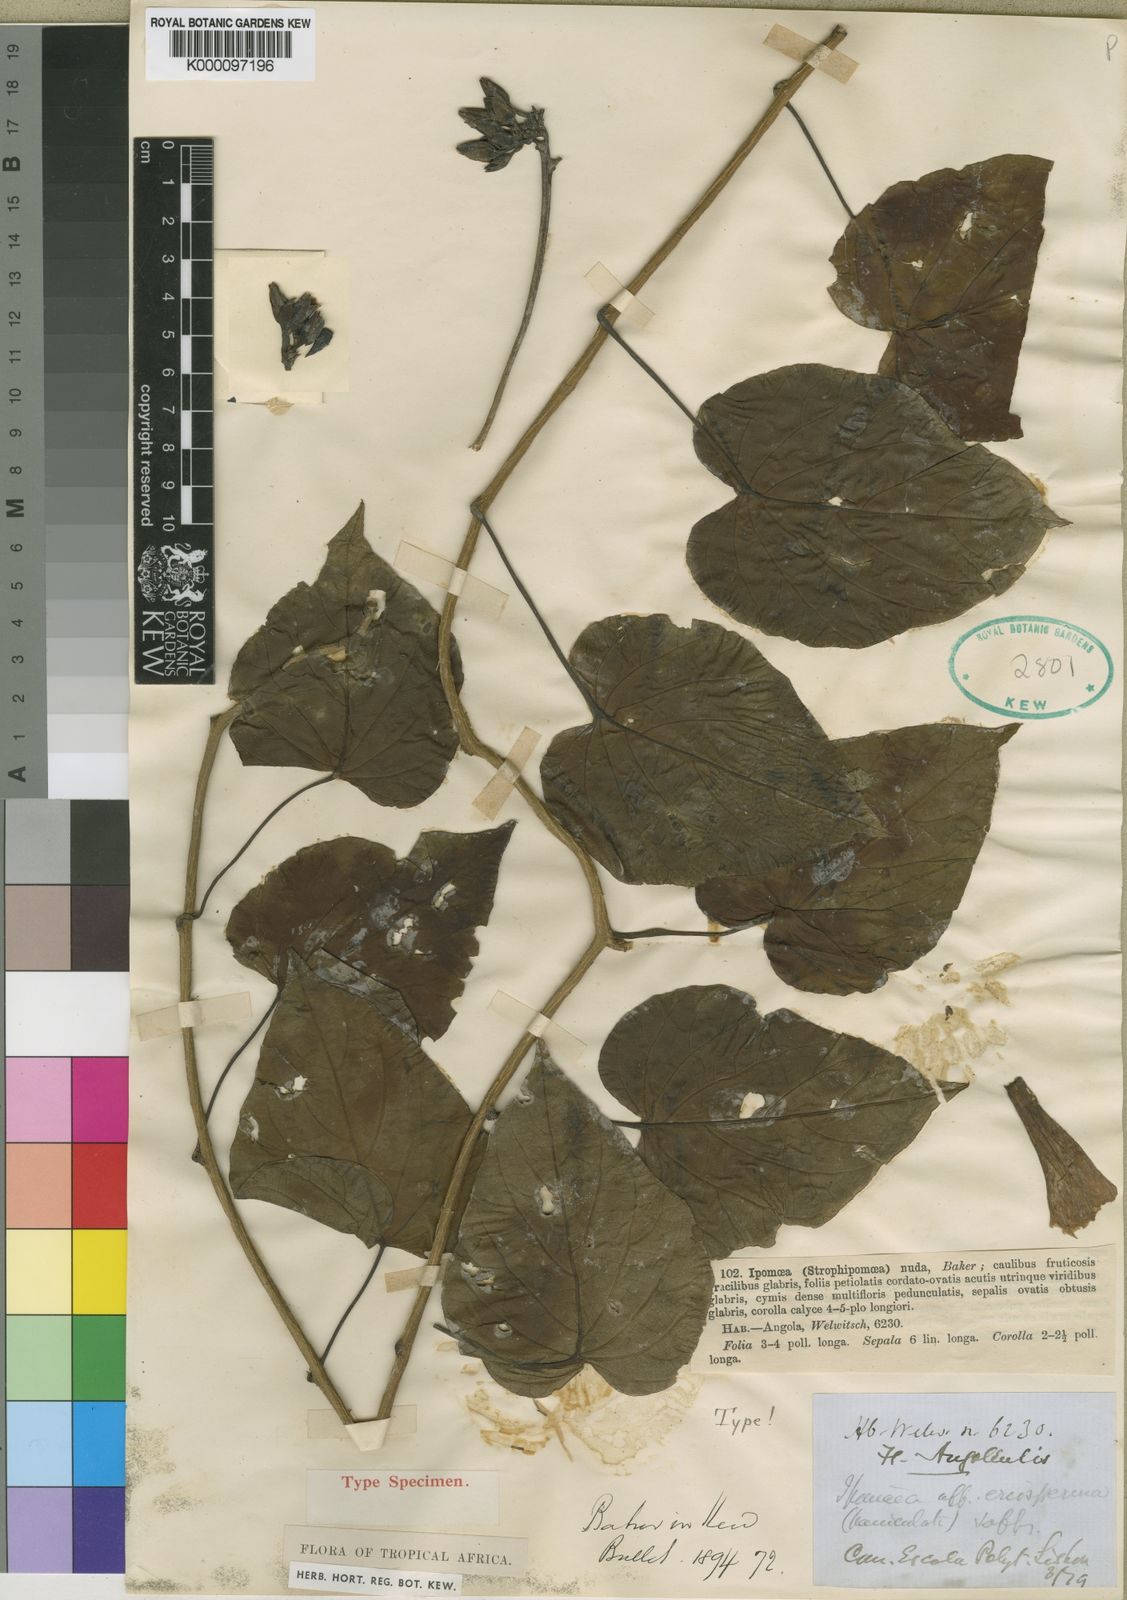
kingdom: Plantae
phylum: Tracheophyta
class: Magnoliopsida
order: Solanales
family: Convolvulaceae
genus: Ipomoea
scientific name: Ipomoea shupangensis
